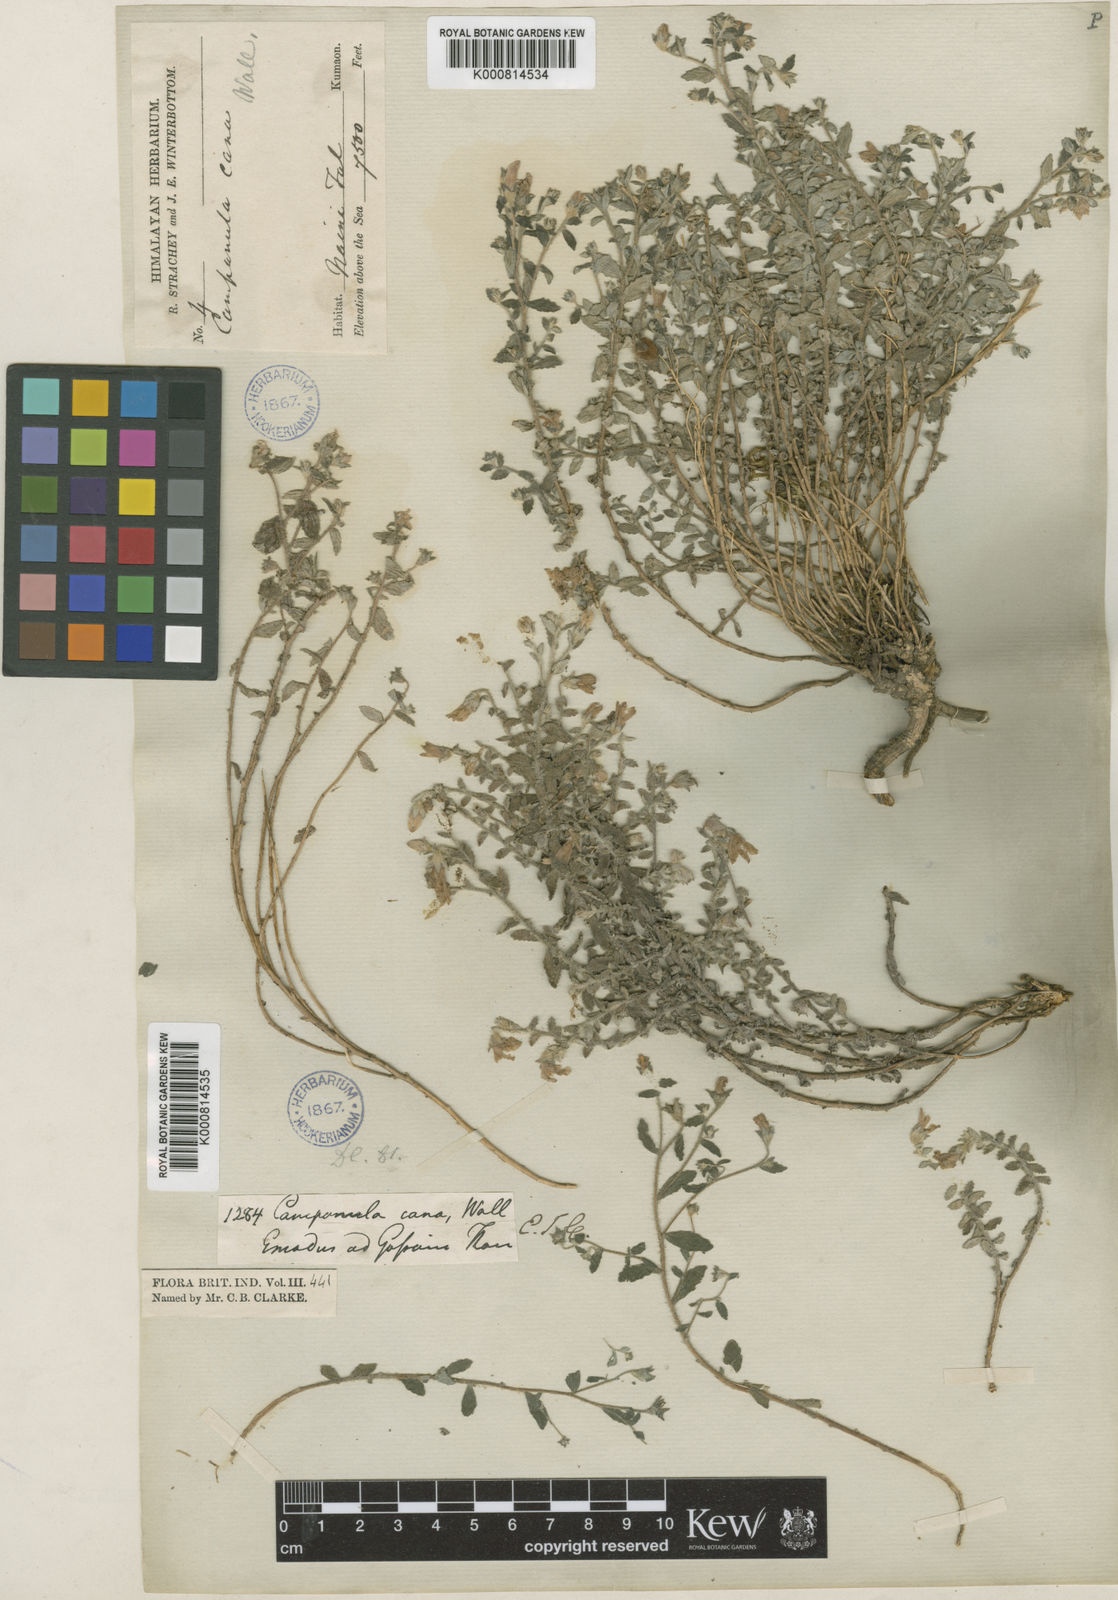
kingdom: Plantae
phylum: Tracheophyta
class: Magnoliopsida
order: Asterales
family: Campanulaceae
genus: Campanula
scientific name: Campanula cana
